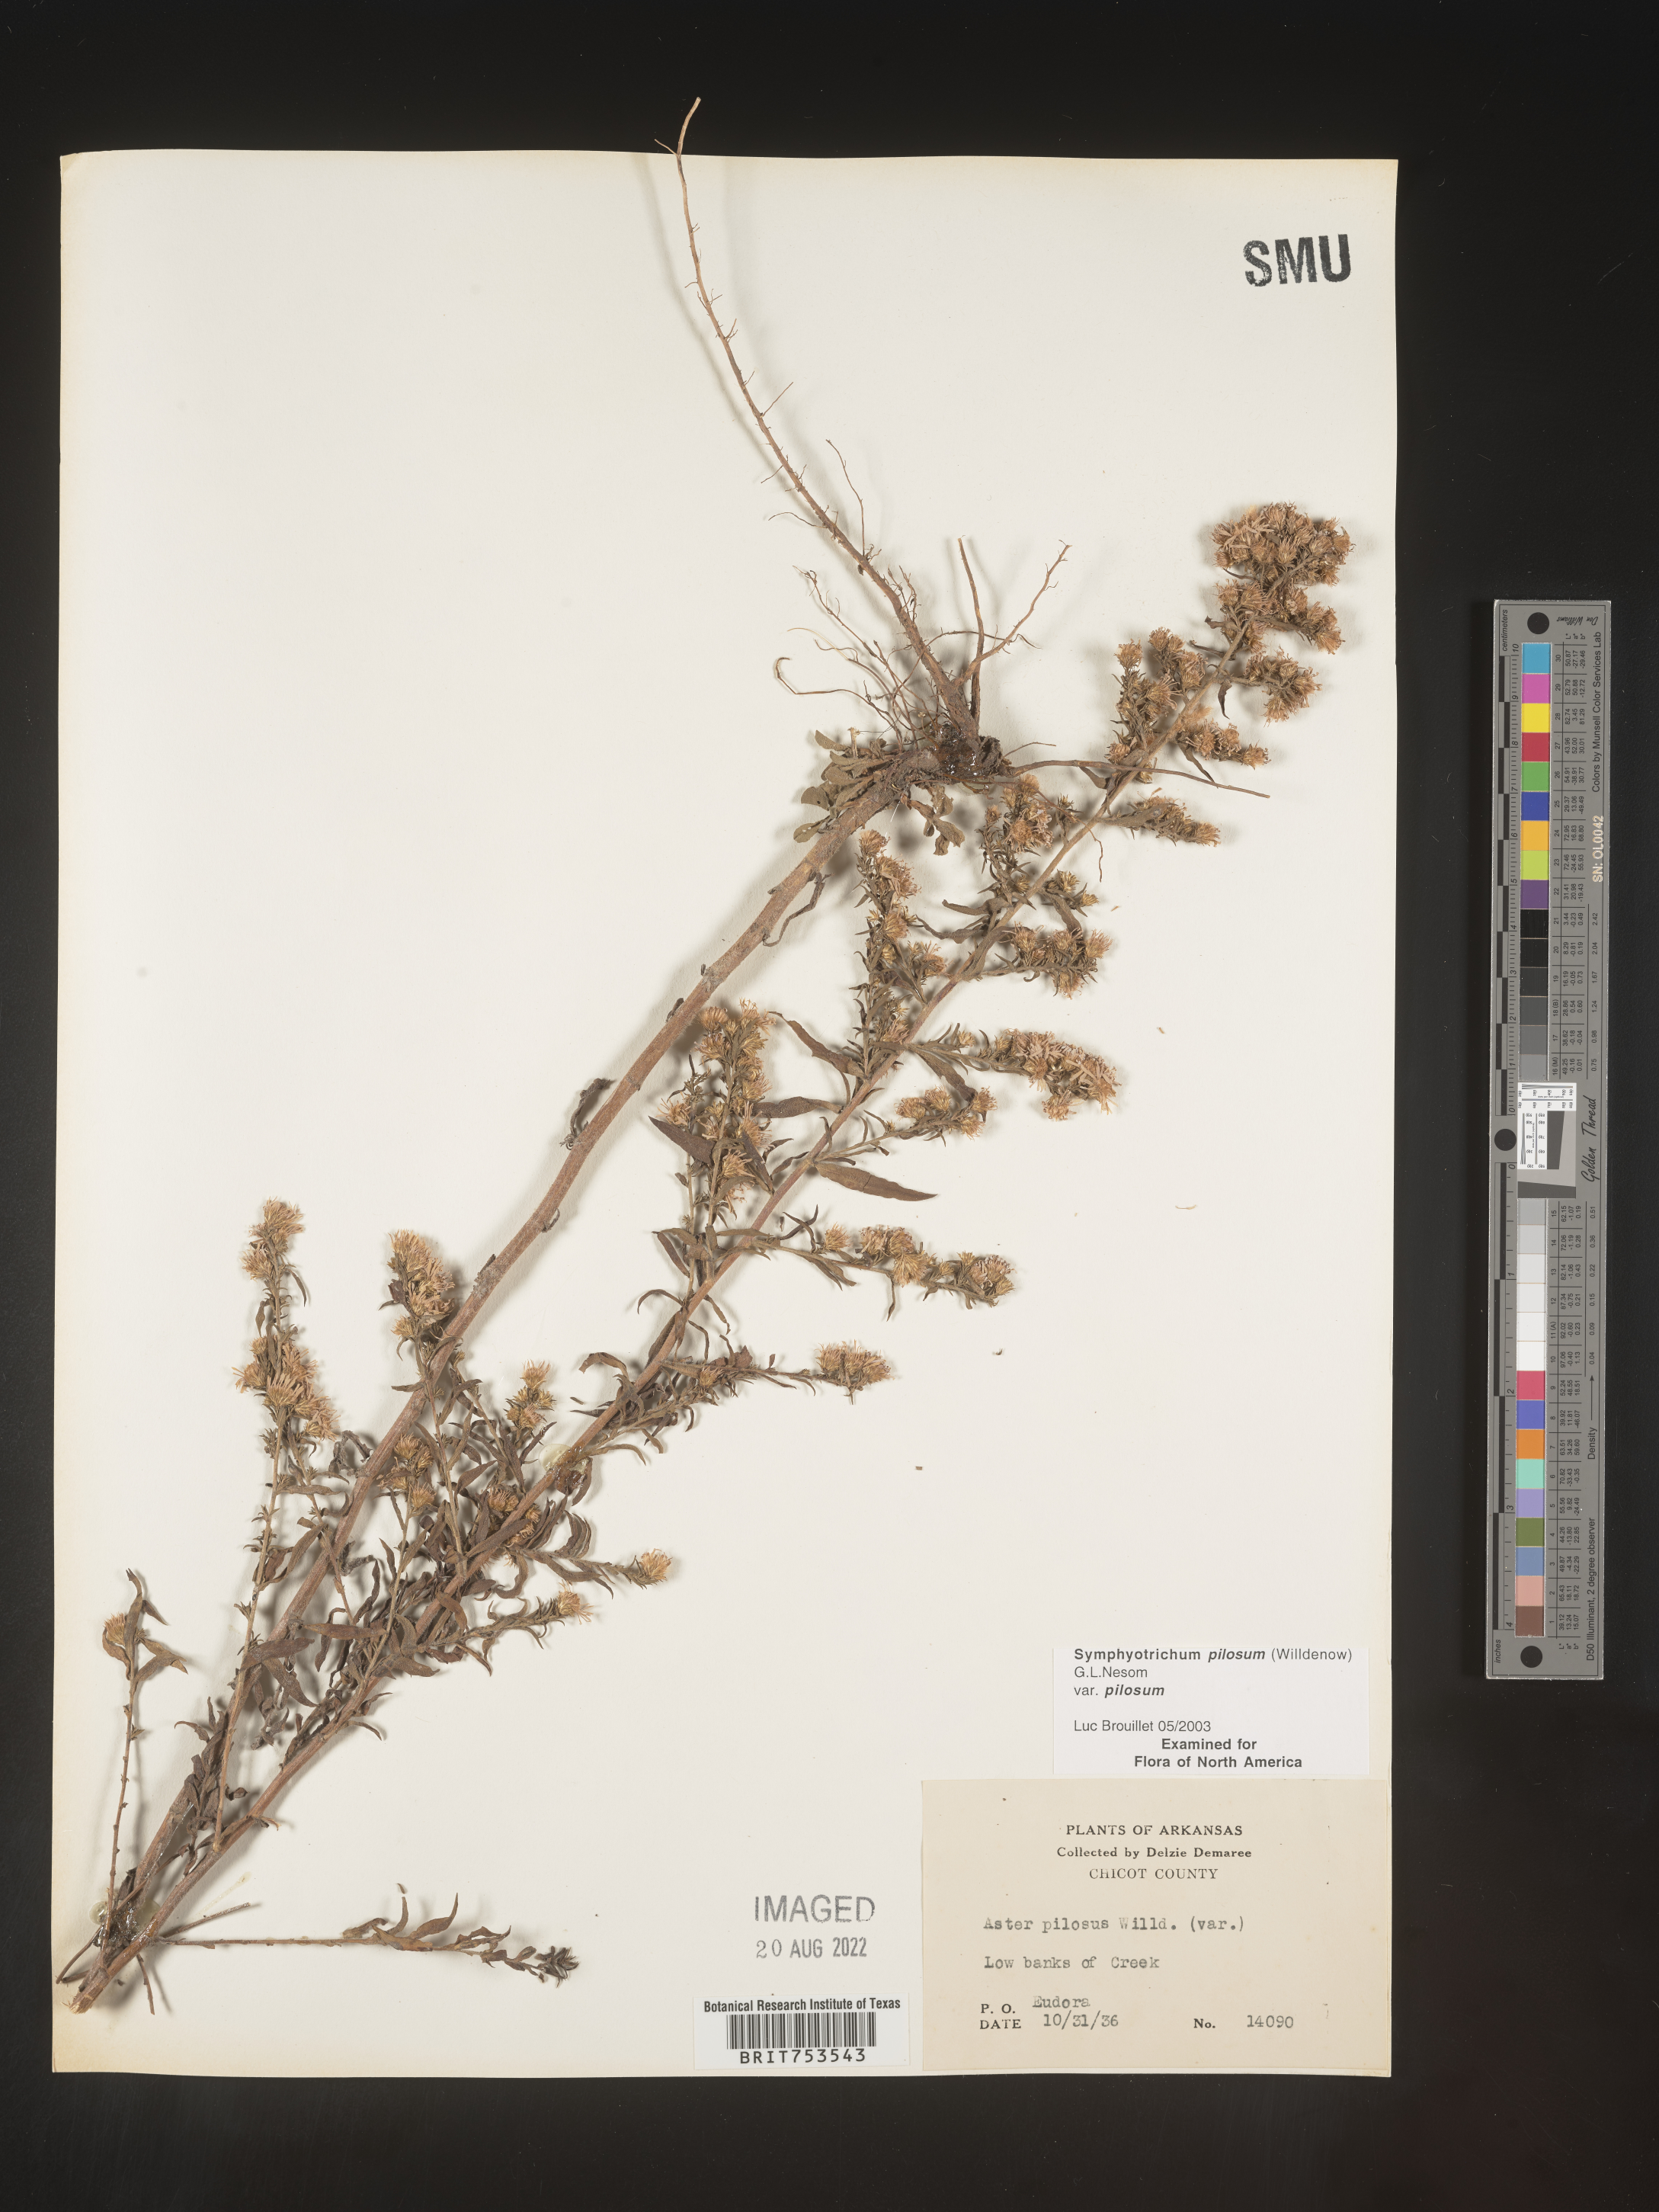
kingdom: Plantae
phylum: Tracheophyta
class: Magnoliopsida
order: Asterales
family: Asteraceae
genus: Symphyotrichum
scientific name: Symphyotrichum pilosum
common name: Awl aster
